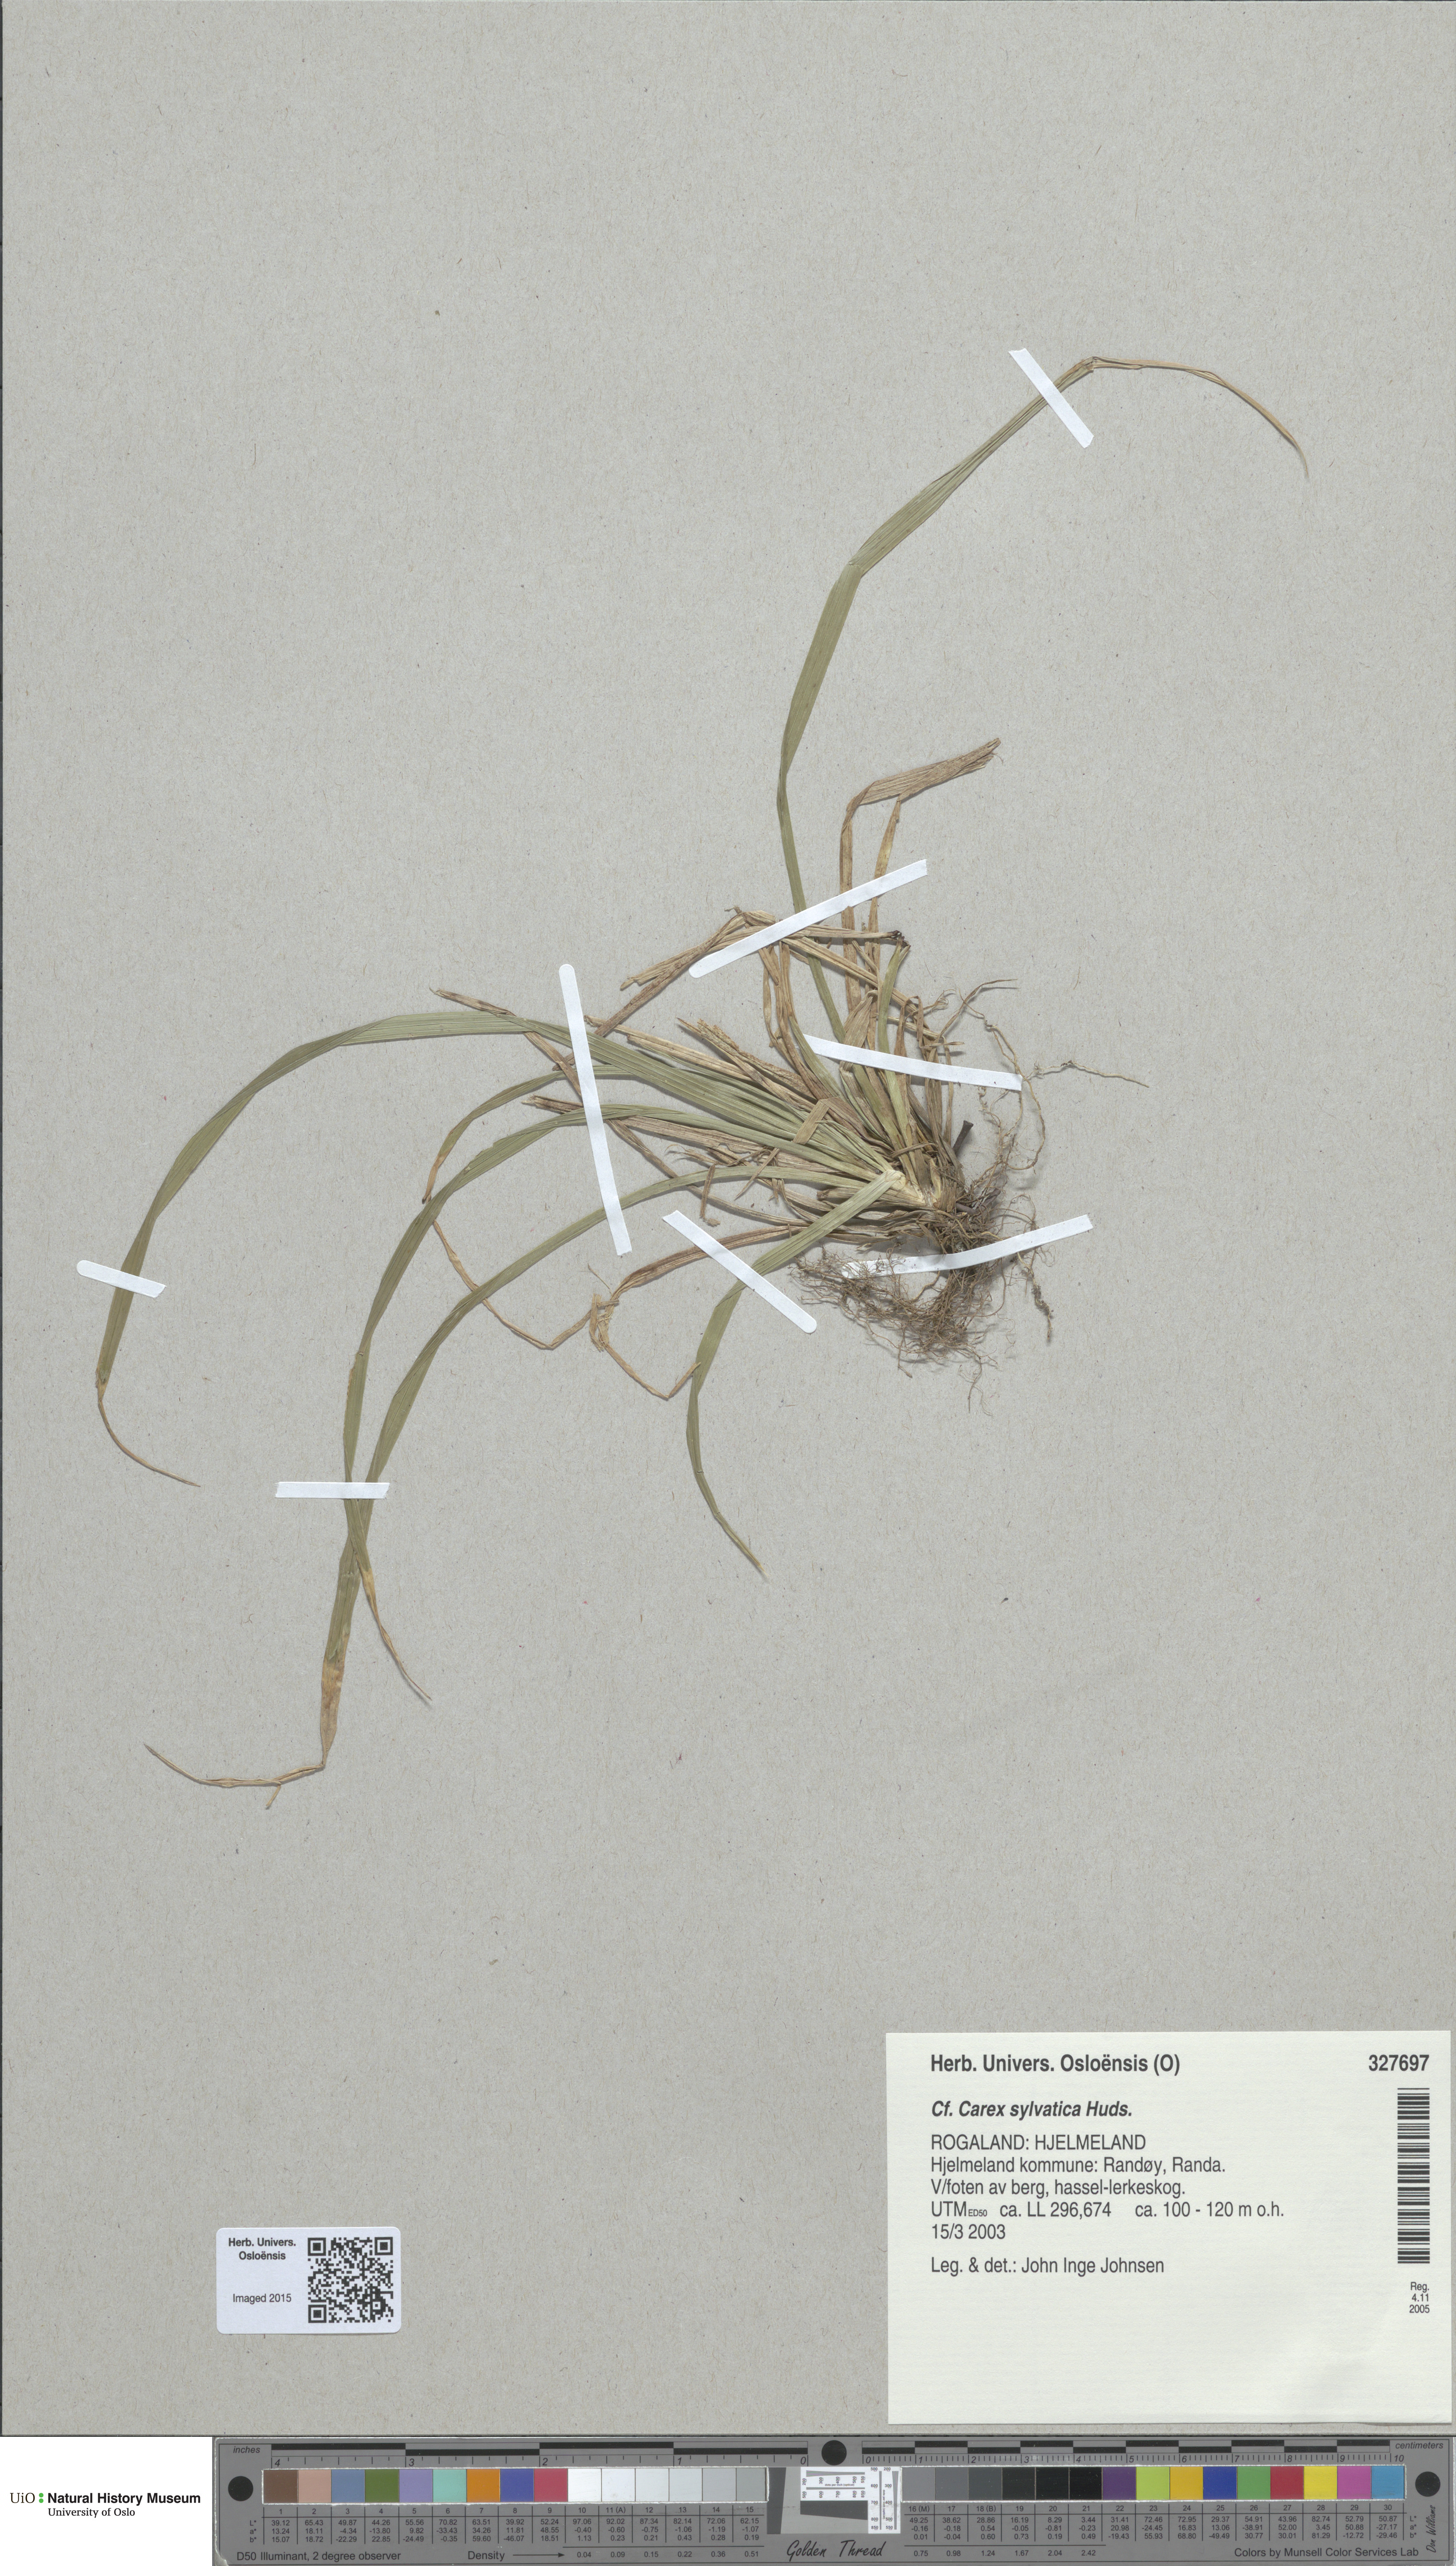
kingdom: Plantae
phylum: Tracheophyta
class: Liliopsida
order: Poales
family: Cyperaceae
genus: Carex
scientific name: Carex sylvatica
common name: Wood-sedge
